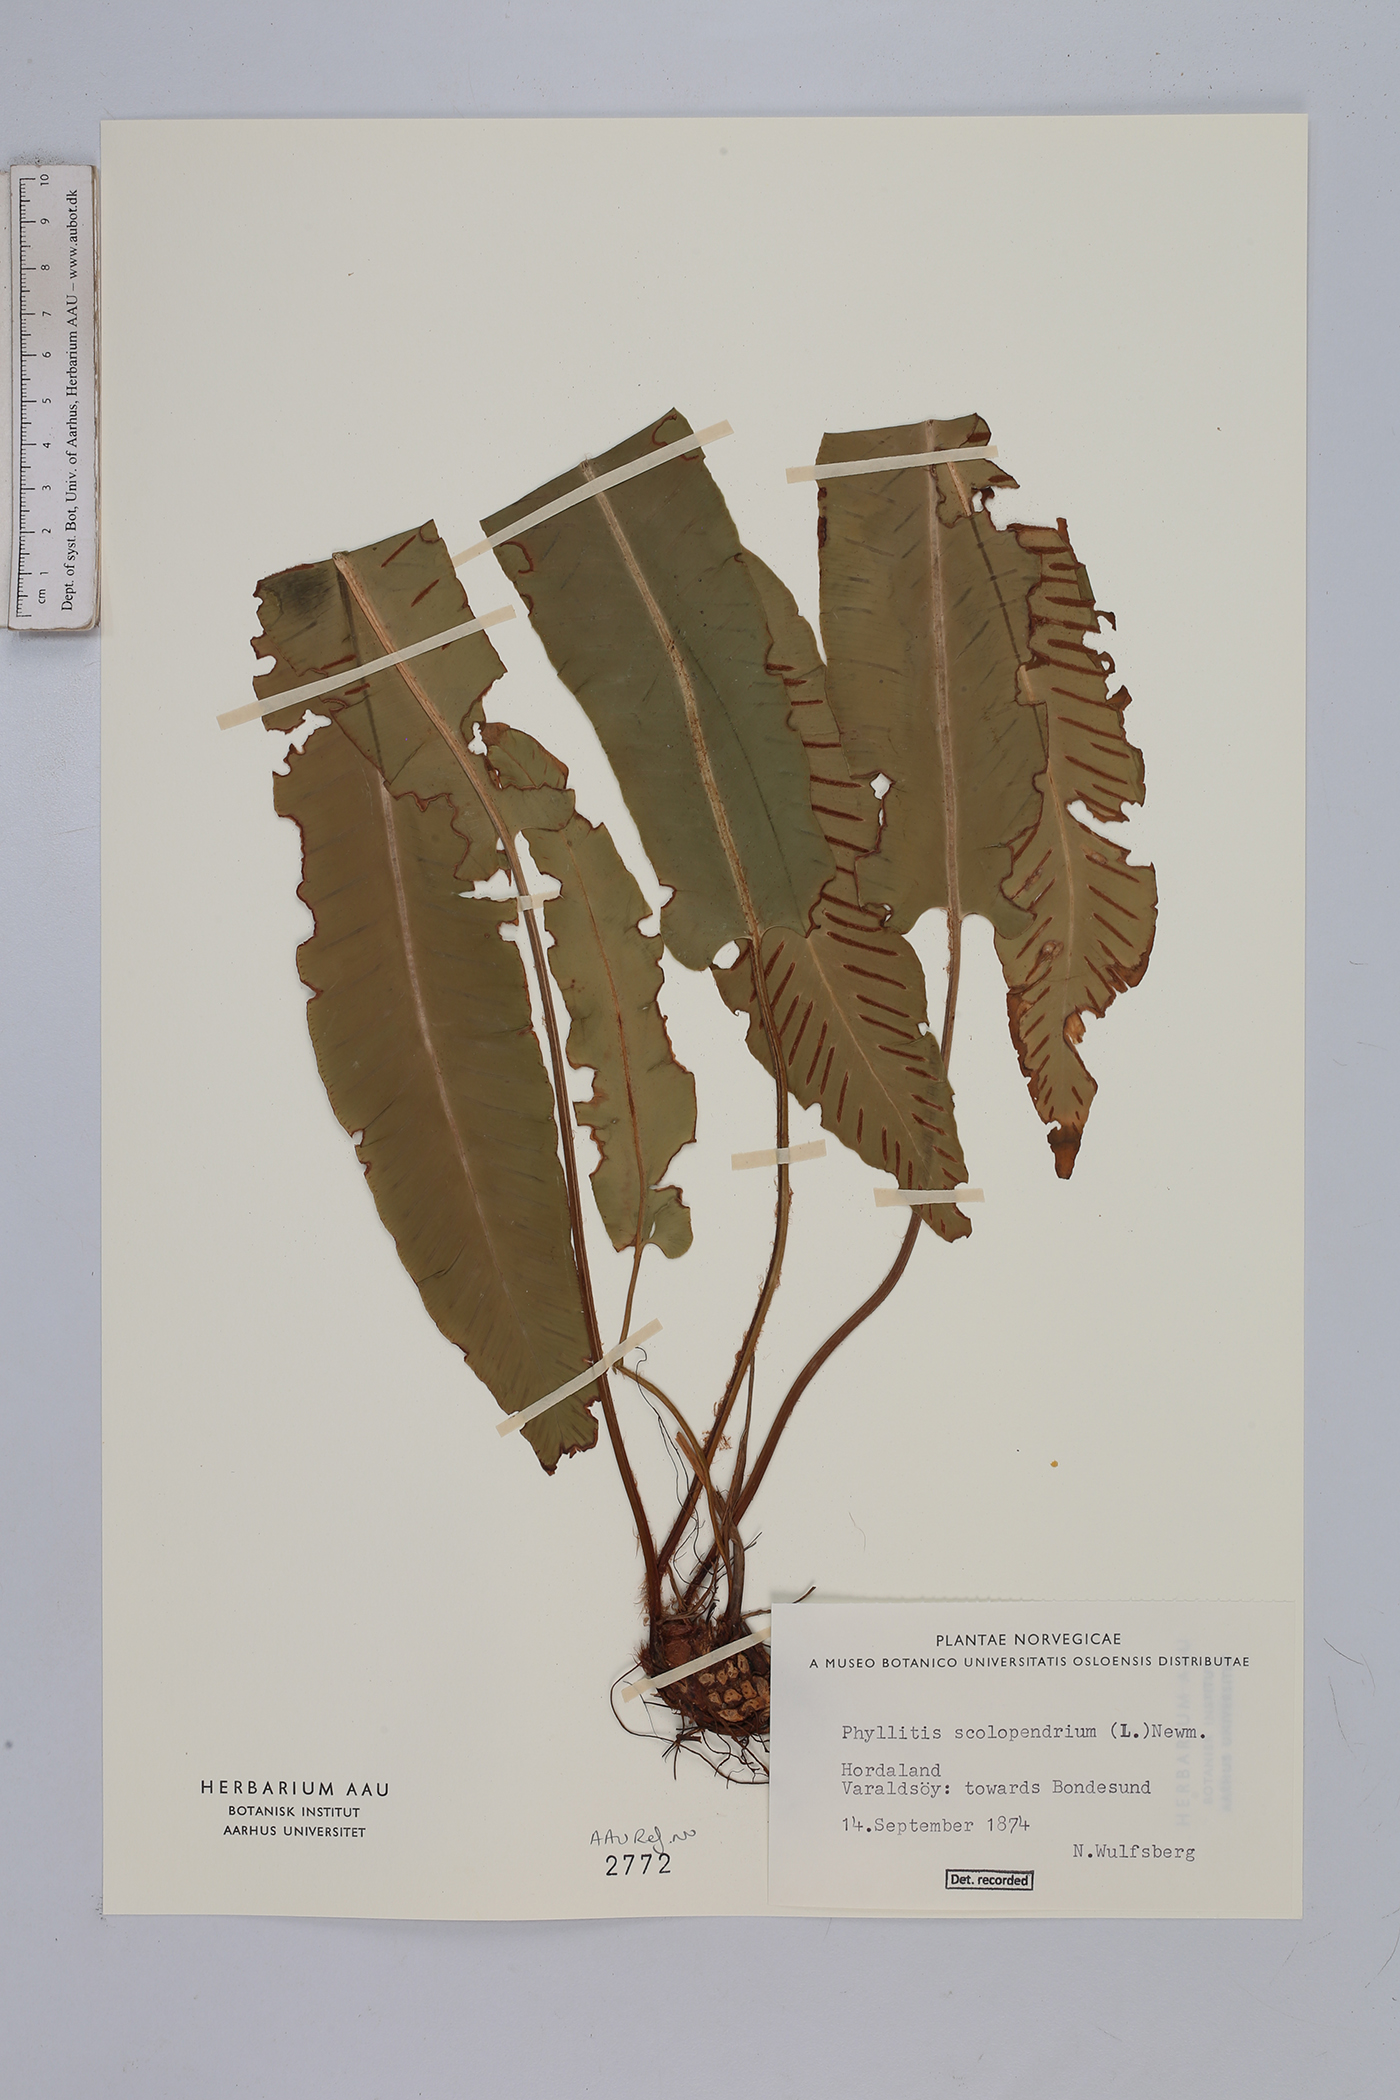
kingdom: Plantae
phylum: Tracheophyta
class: Polypodiopsida
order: Polypodiales
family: Aspleniaceae
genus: Asplenium
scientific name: Asplenium scolopendrium
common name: Hart's-tongue fern
